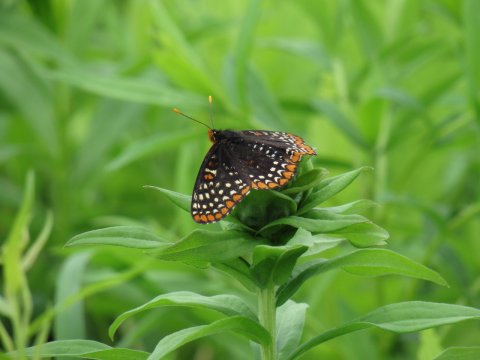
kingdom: Animalia
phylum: Arthropoda
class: Insecta
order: Lepidoptera
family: Nymphalidae
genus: Euphydryas
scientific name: Euphydryas phaeton
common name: Baltimore Checkerspot
